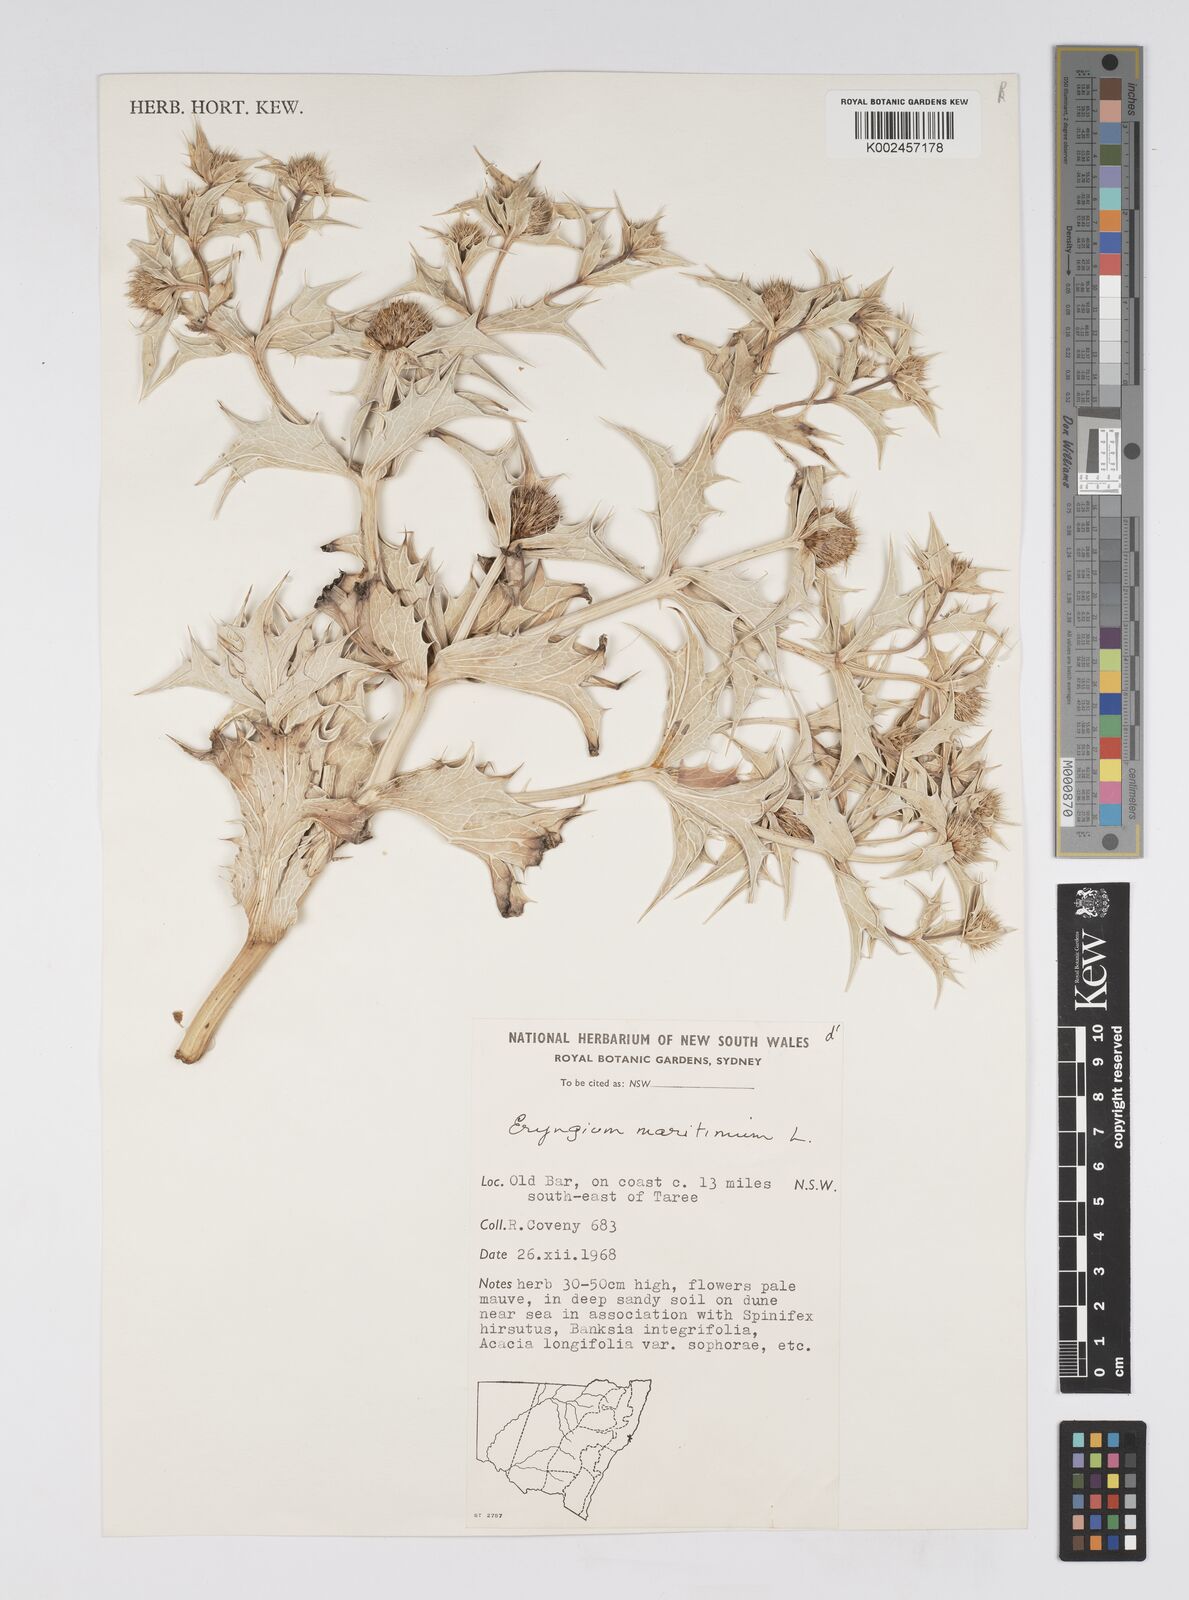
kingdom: Plantae
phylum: Tracheophyta
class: Magnoliopsida
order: Apiales
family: Apiaceae
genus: Eryngium
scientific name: Eryngium maritimum
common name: Sea-holly
